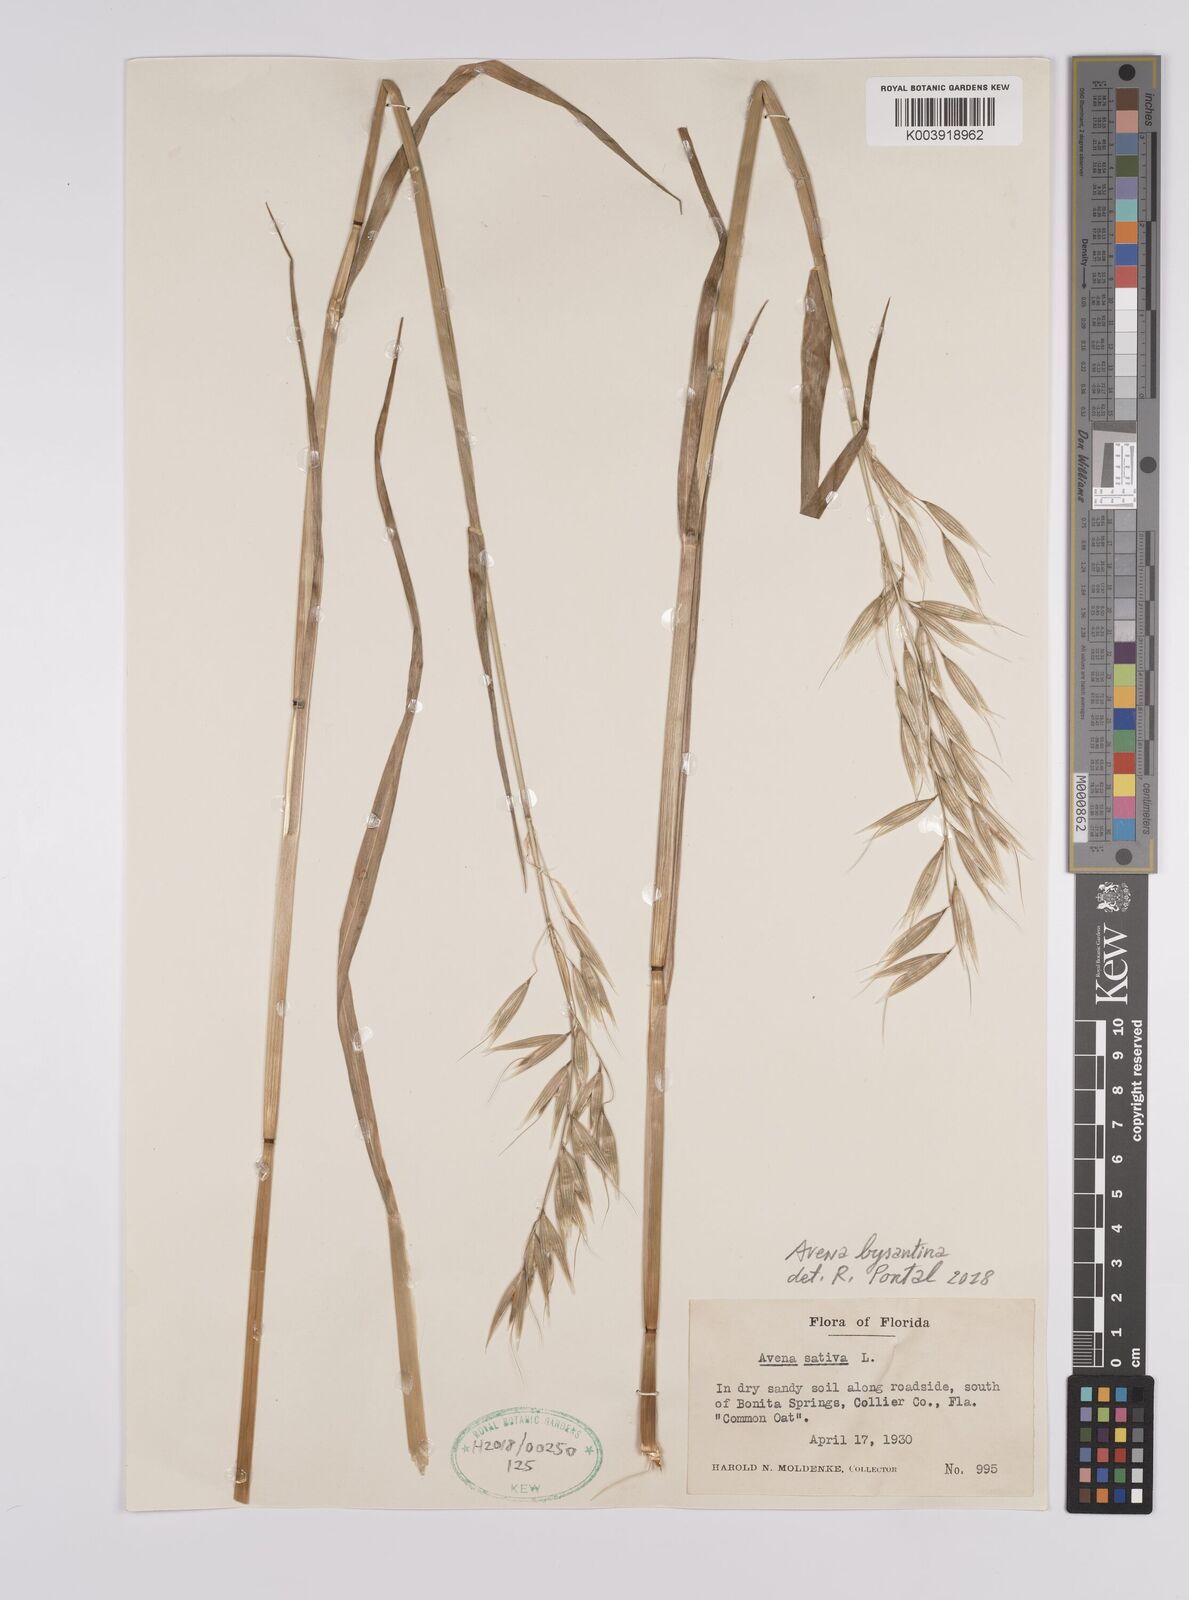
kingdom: Plantae
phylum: Tracheophyta
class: Liliopsida
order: Poales
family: Poaceae
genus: Avena
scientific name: Avena byzantina
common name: Algerian oat
